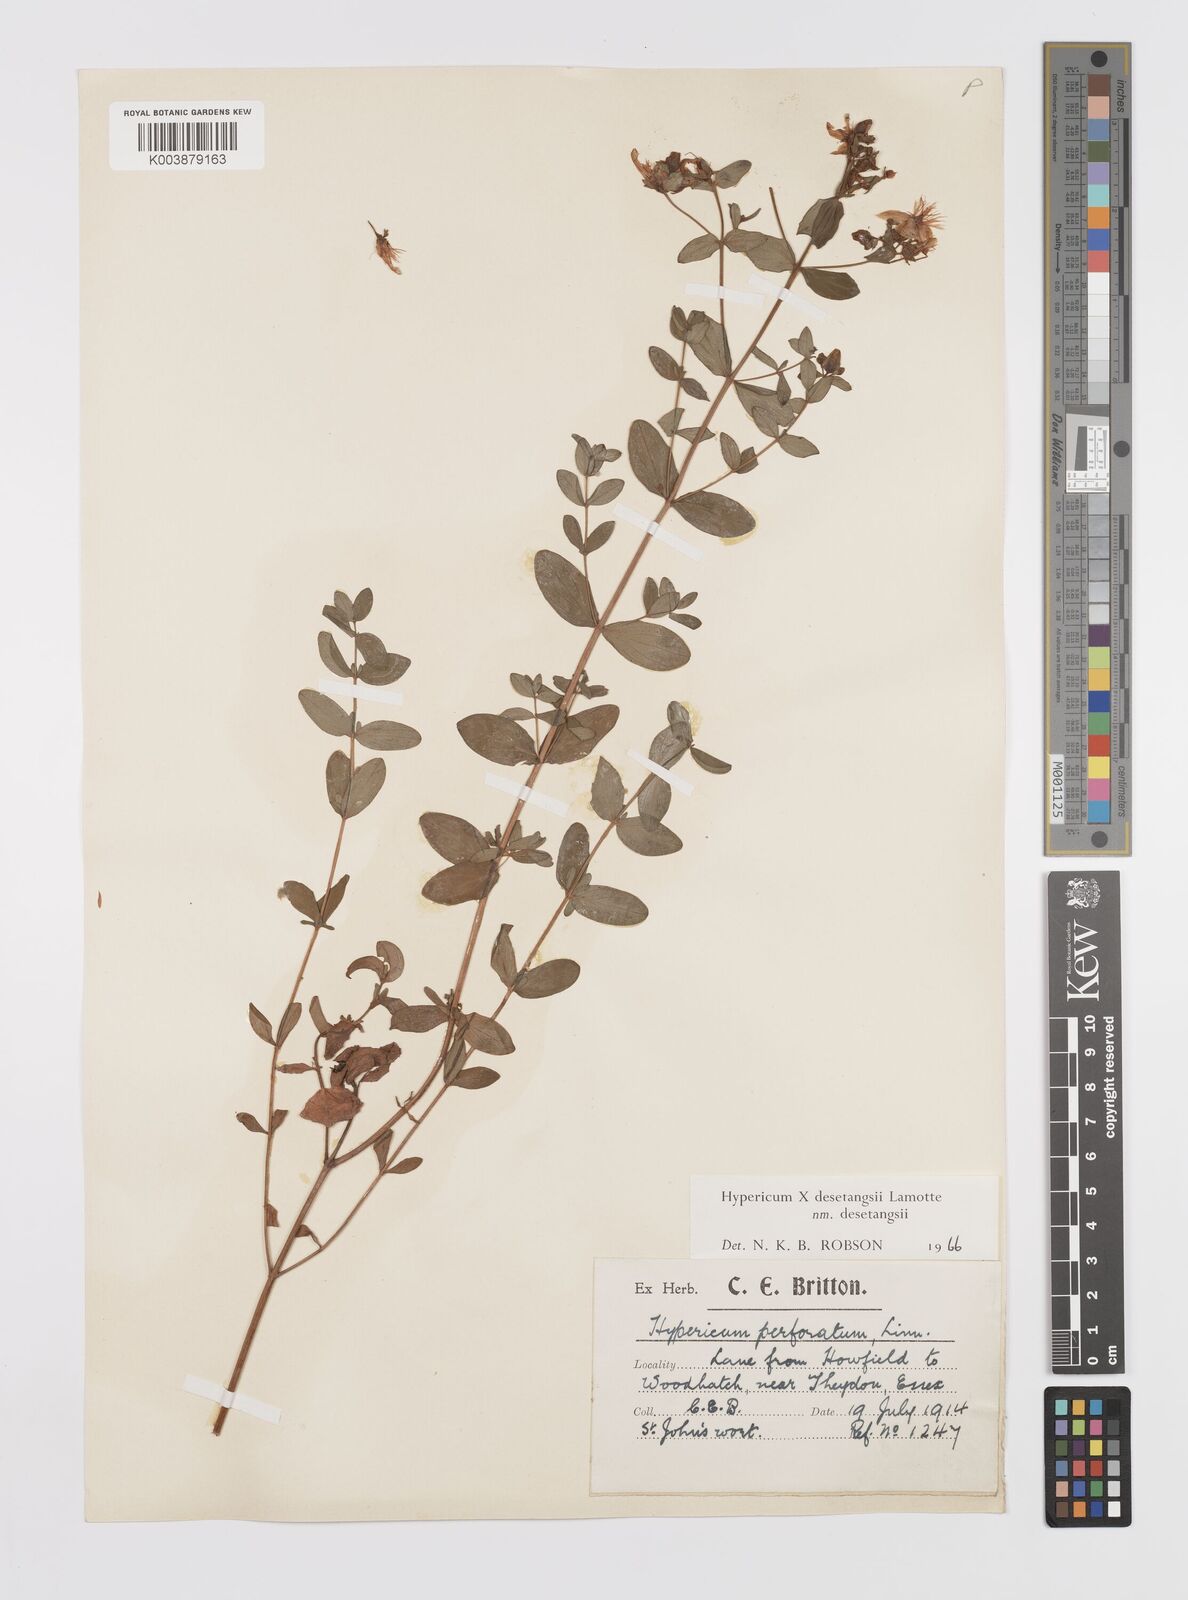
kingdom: Plantae
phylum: Tracheophyta
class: Magnoliopsida
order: Malpighiales
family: Hypericaceae
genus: Hypericum
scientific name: Hypericum undulatum
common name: Wavy st. john's-wort
